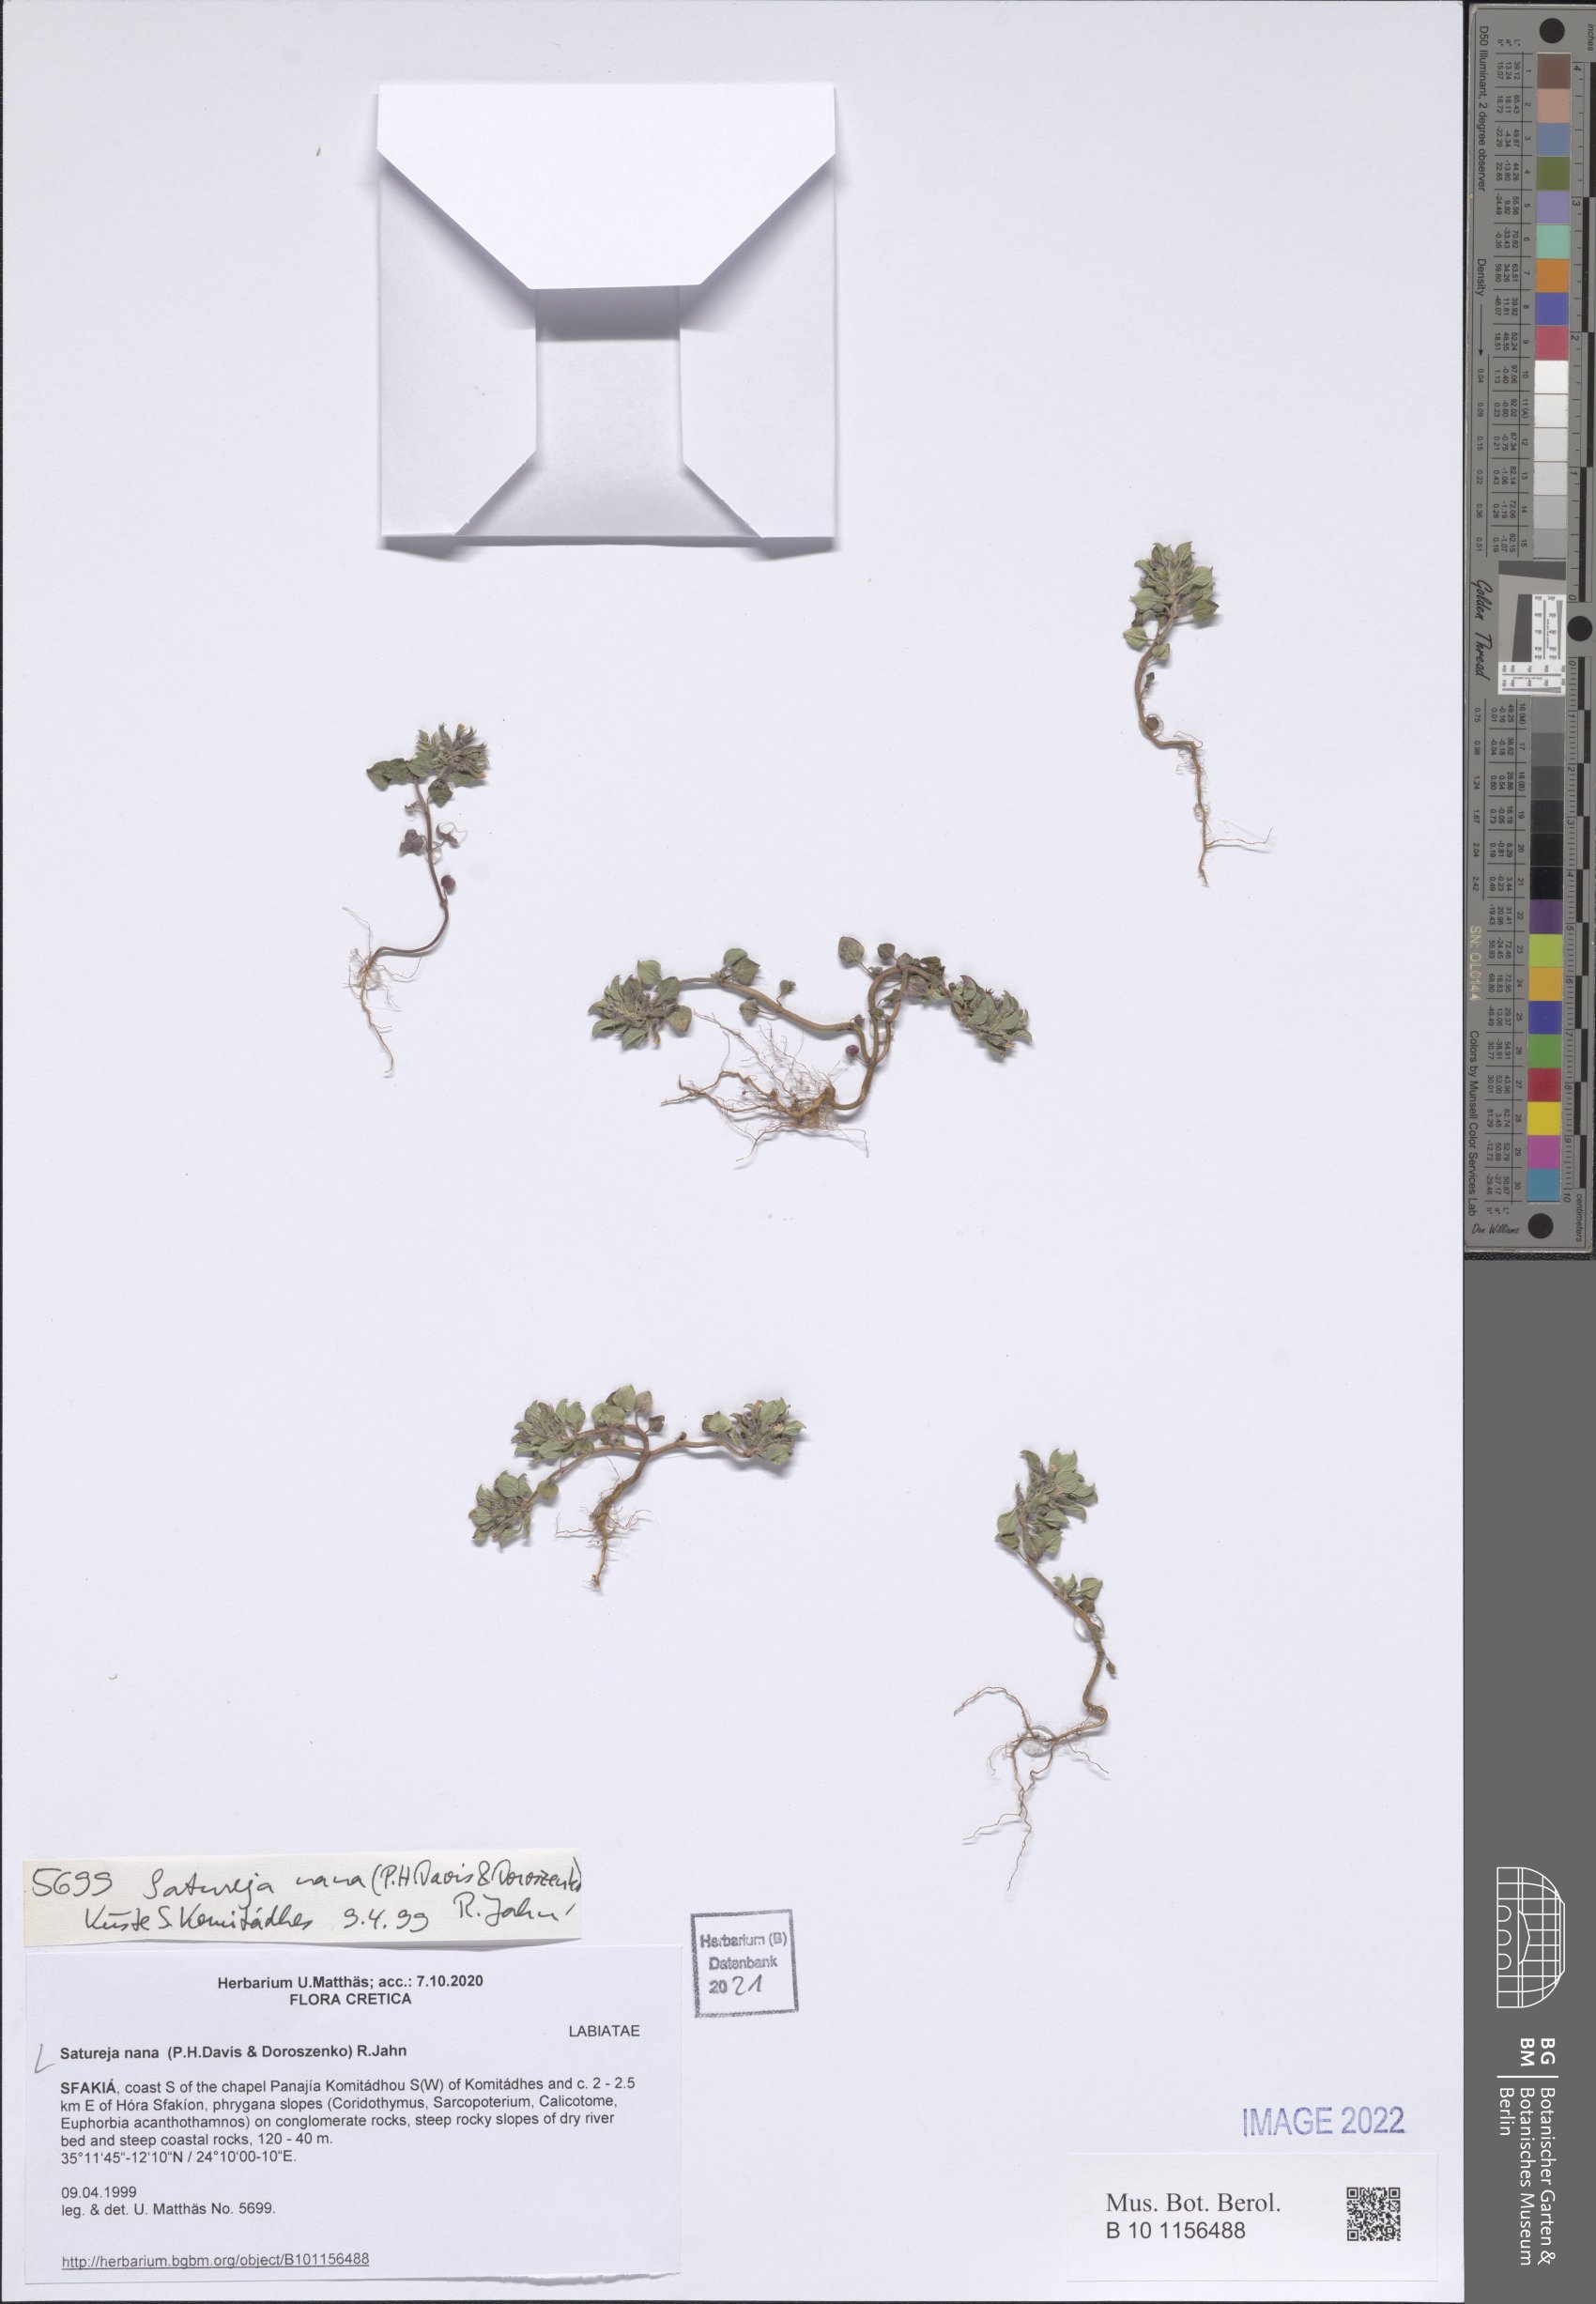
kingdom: Plantae
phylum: Tracheophyta
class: Magnoliopsida
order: Lamiales
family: Lamiaceae
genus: Clinopodium
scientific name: Clinopodium nanum
